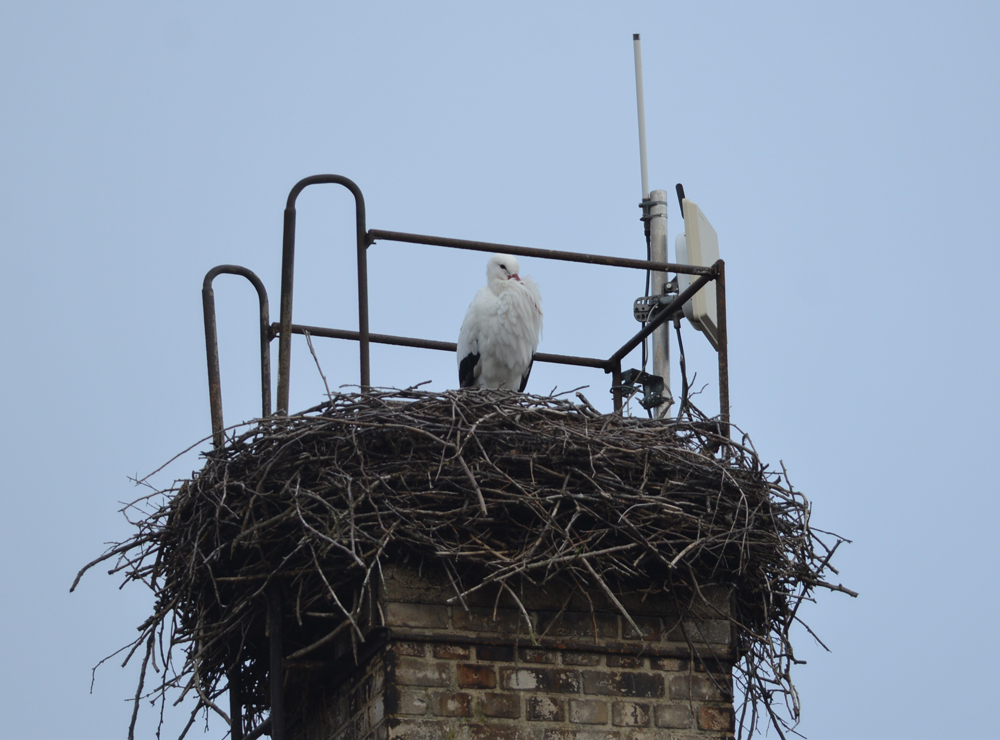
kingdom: Animalia
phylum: Chordata
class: Aves
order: Ciconiiformes
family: Ciconiidae
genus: Ciconia
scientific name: Ciconia ciconia
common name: White stork
